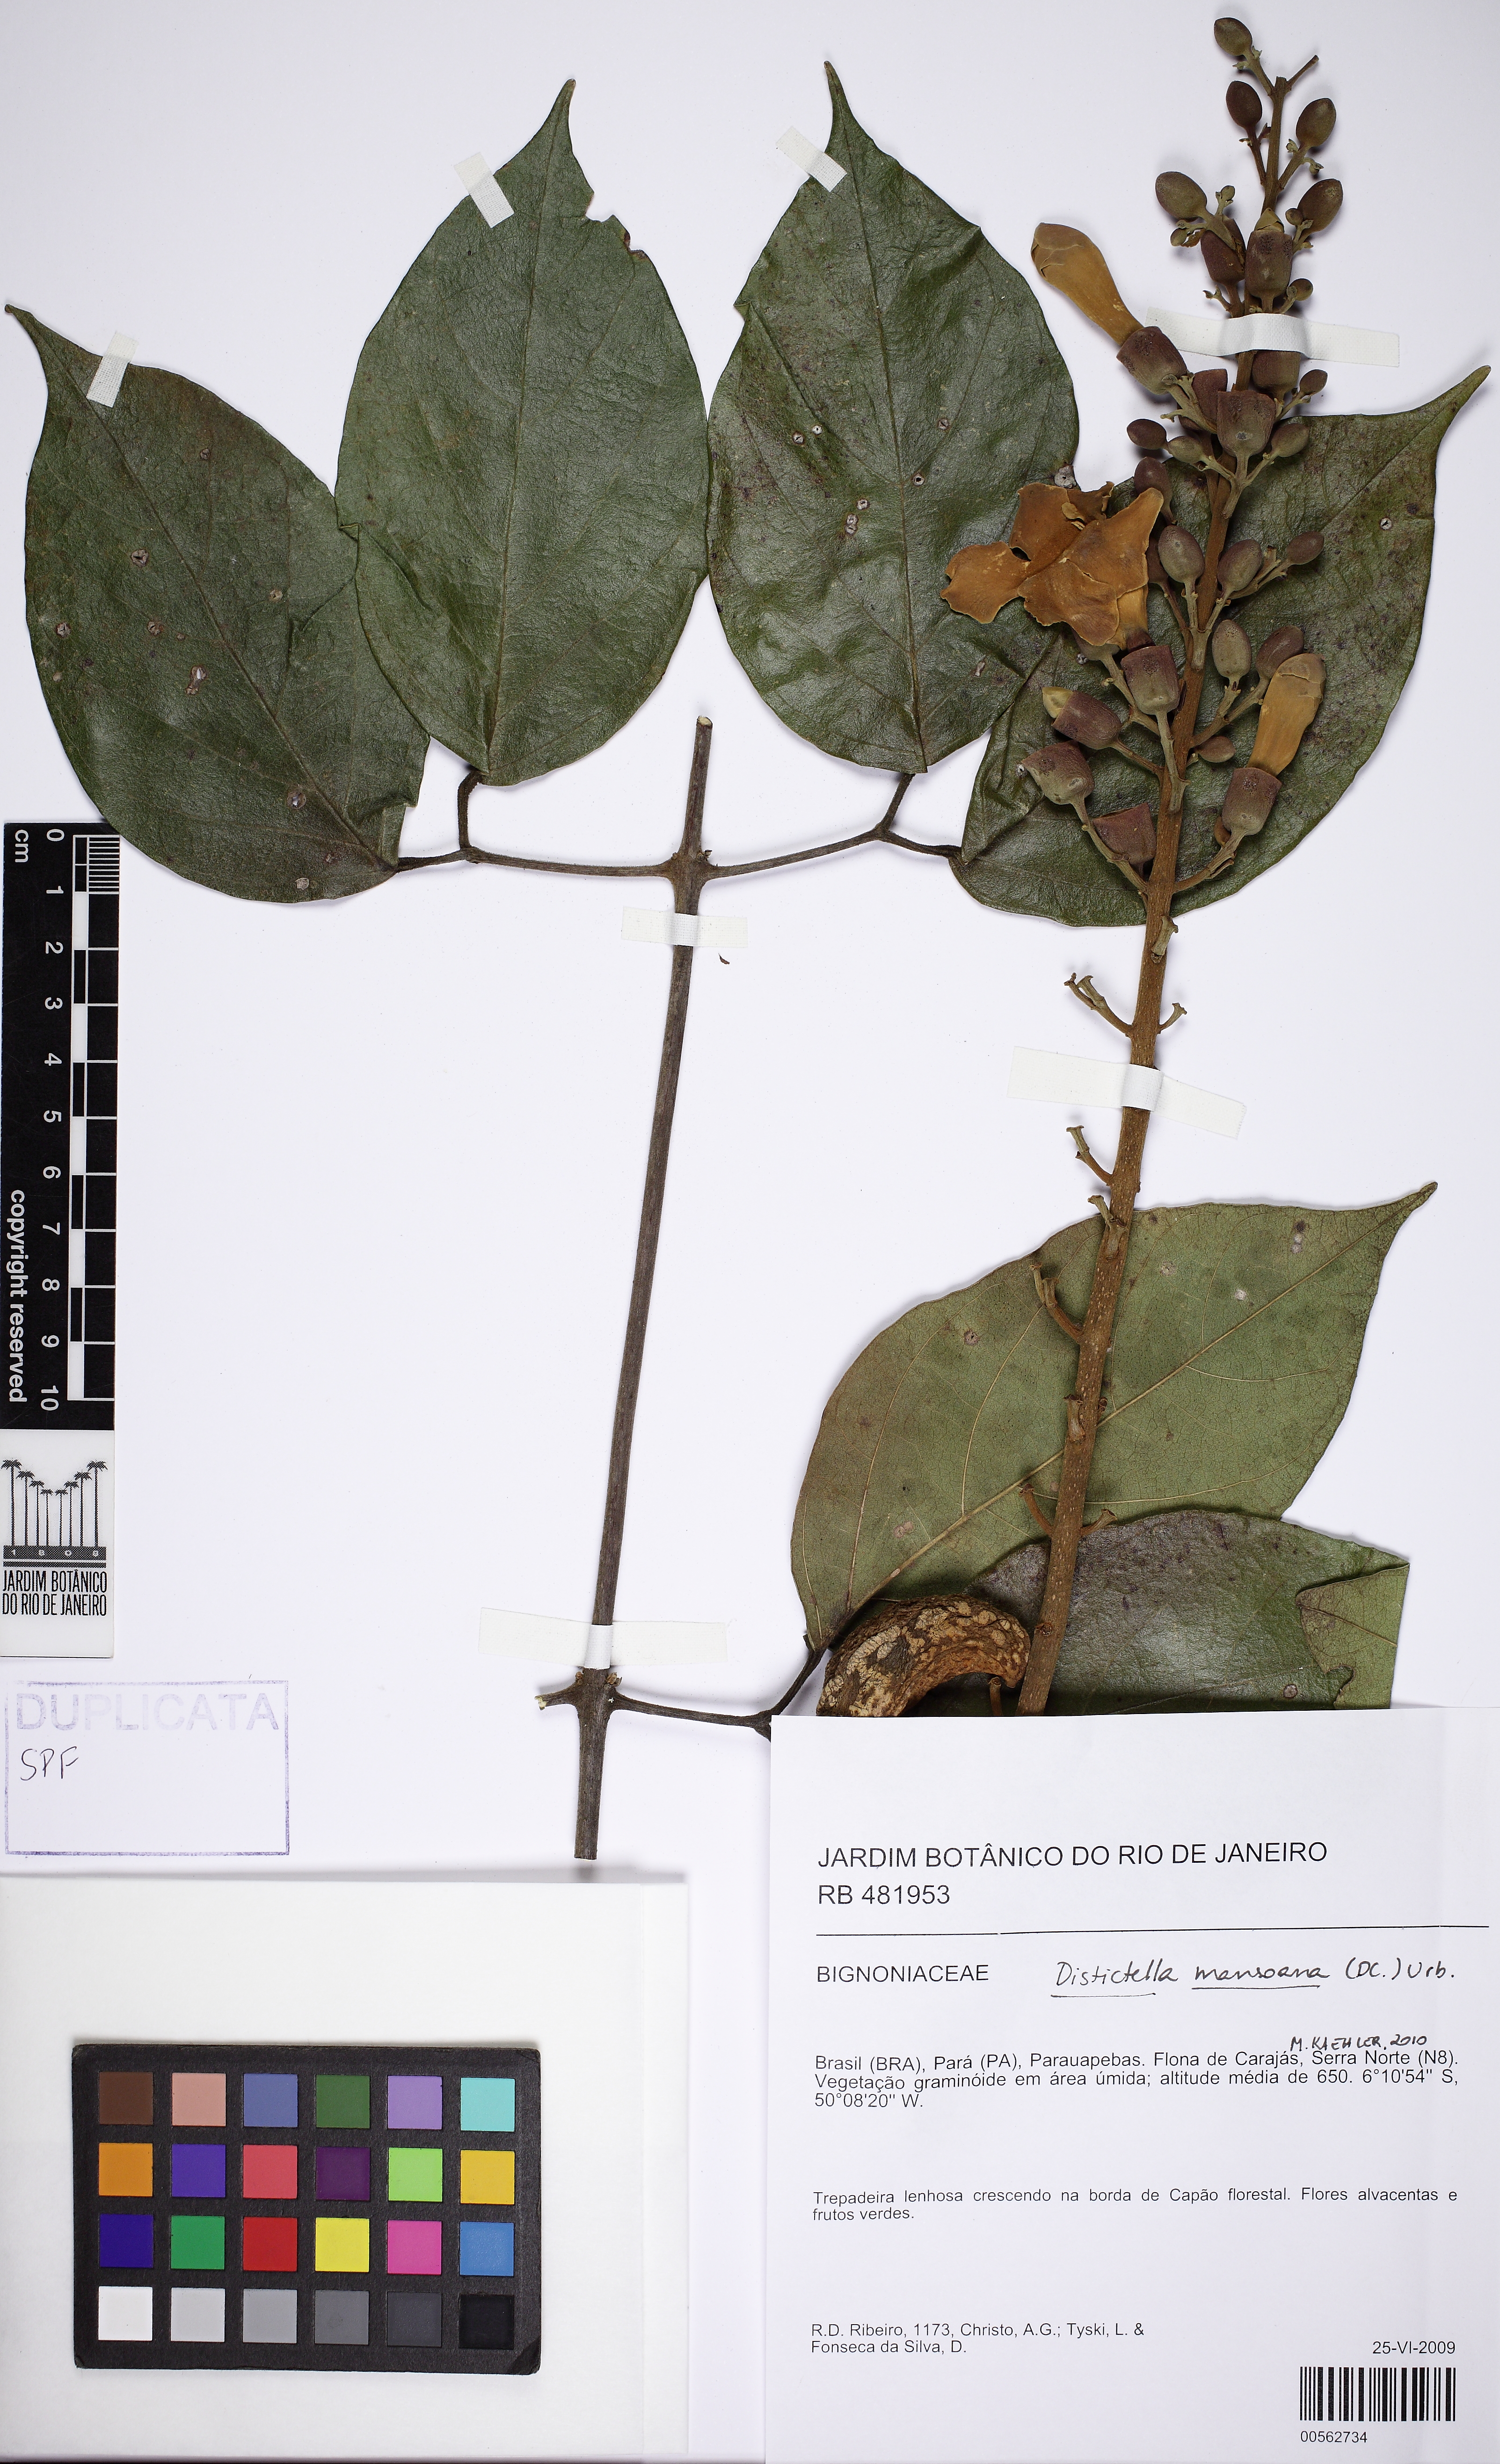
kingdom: Plantae
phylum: Tracheophyta
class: Magnoliopsida
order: Lamiales
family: Bignoniaceae
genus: Amphilophium
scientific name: Amphilophium mansoanum
